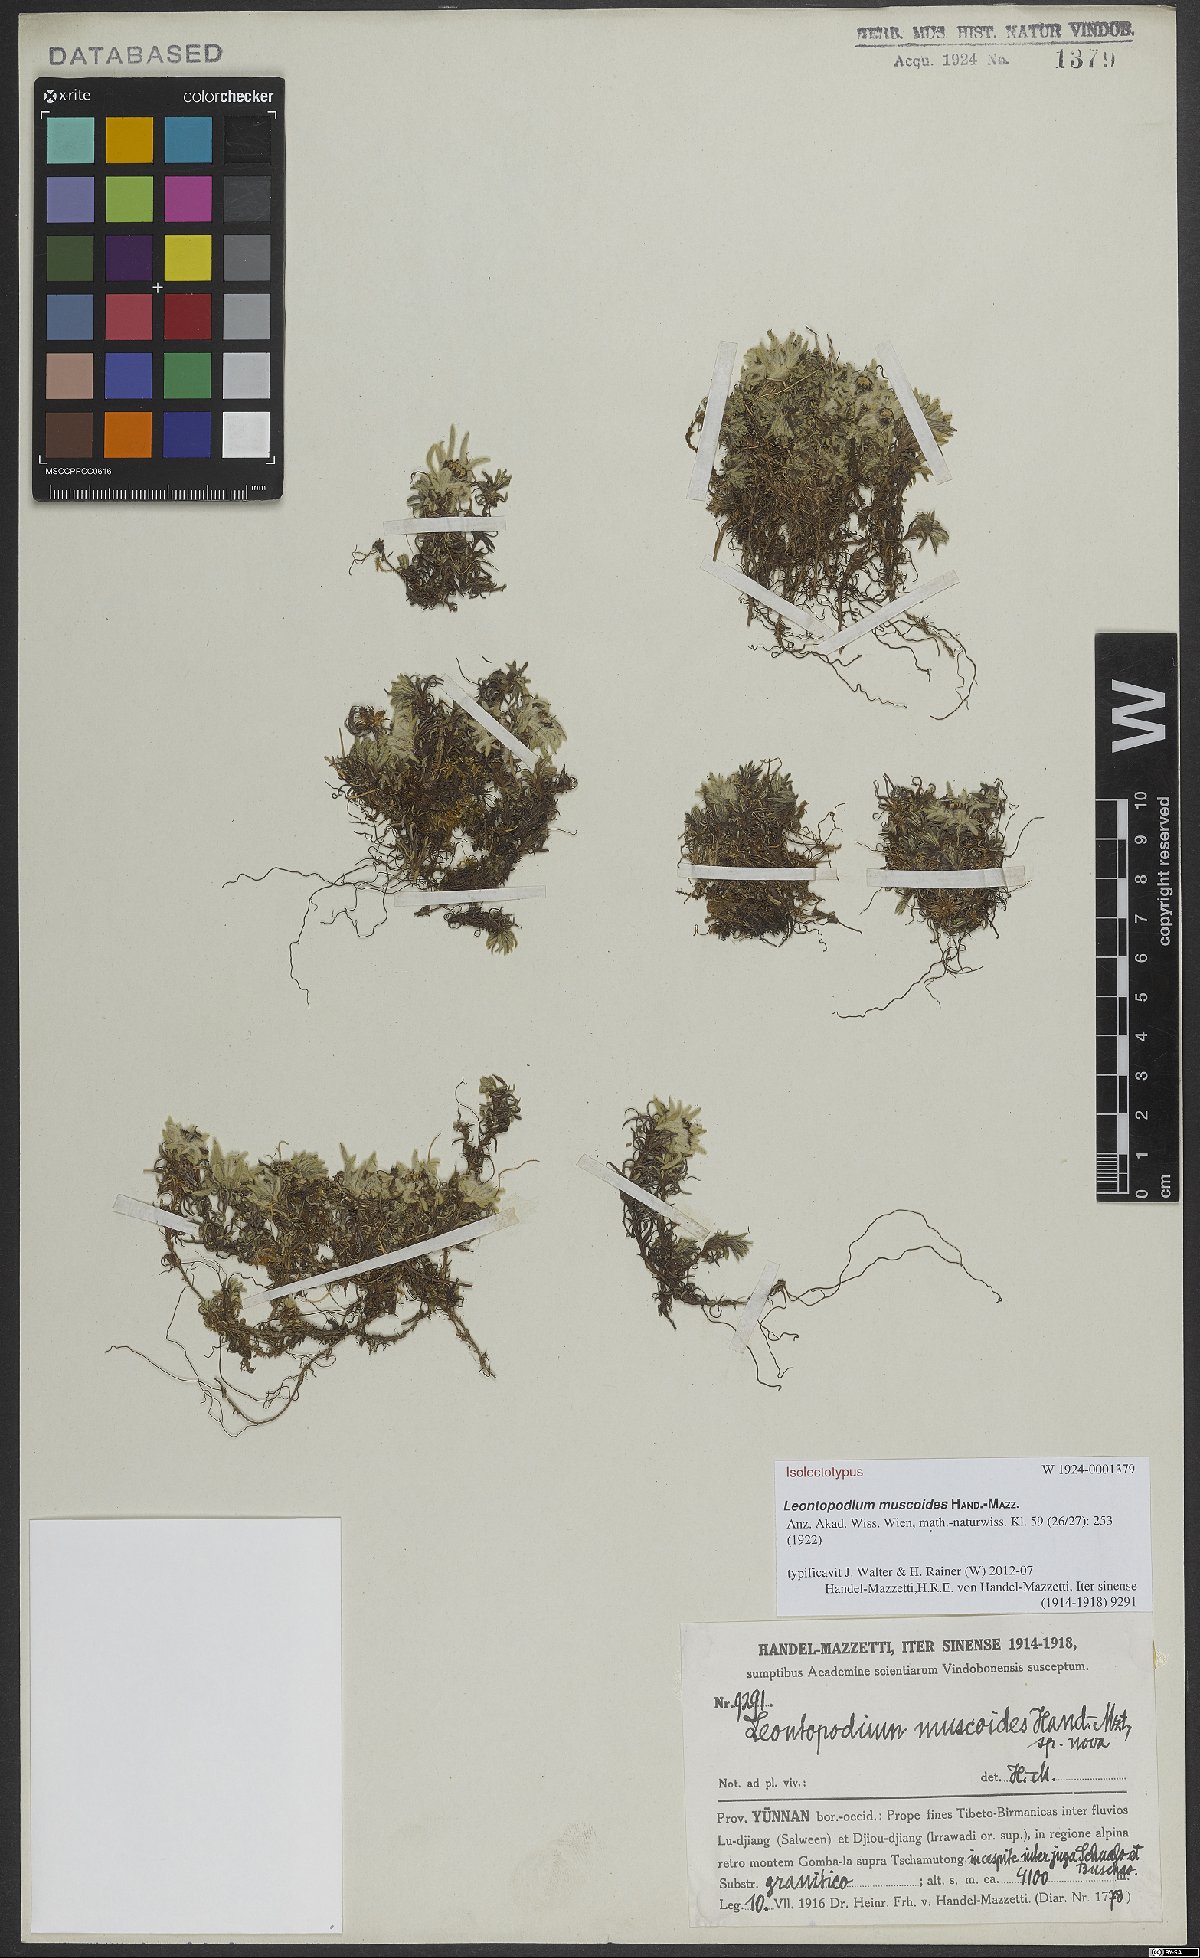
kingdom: Plantae
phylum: Tracheophyta
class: Magnoliopsida
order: Asterales
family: Asteraceae
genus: Leontopodium
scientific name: Leontopodium muscoides
